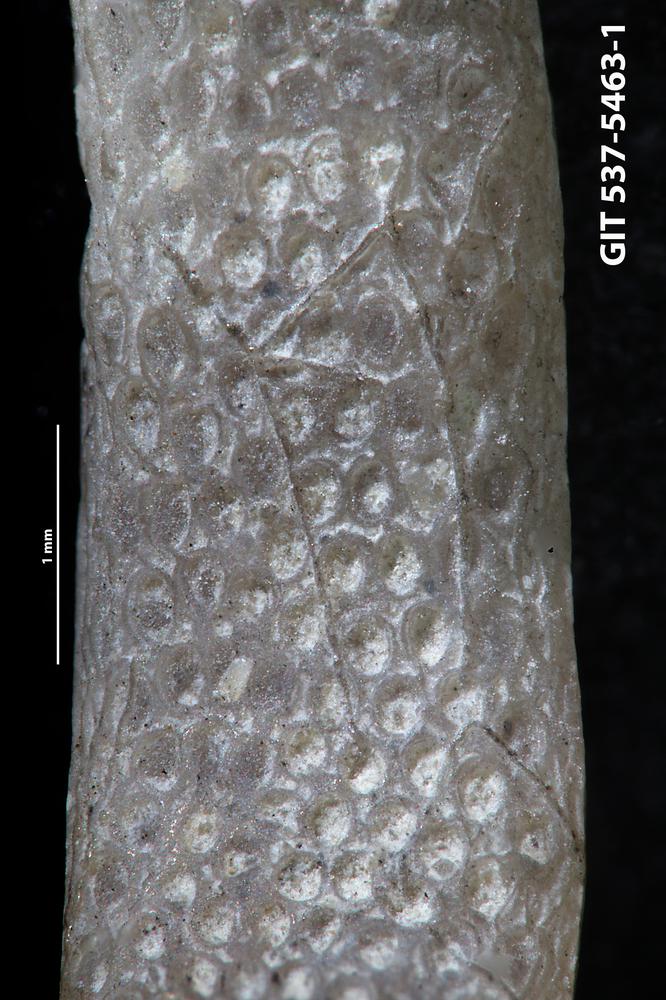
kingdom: Animalia
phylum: Bryozoa
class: Stenolaemata
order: Cyclostomatida
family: Corynotrypidae
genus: Corynotrypa
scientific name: Corynotrypa
